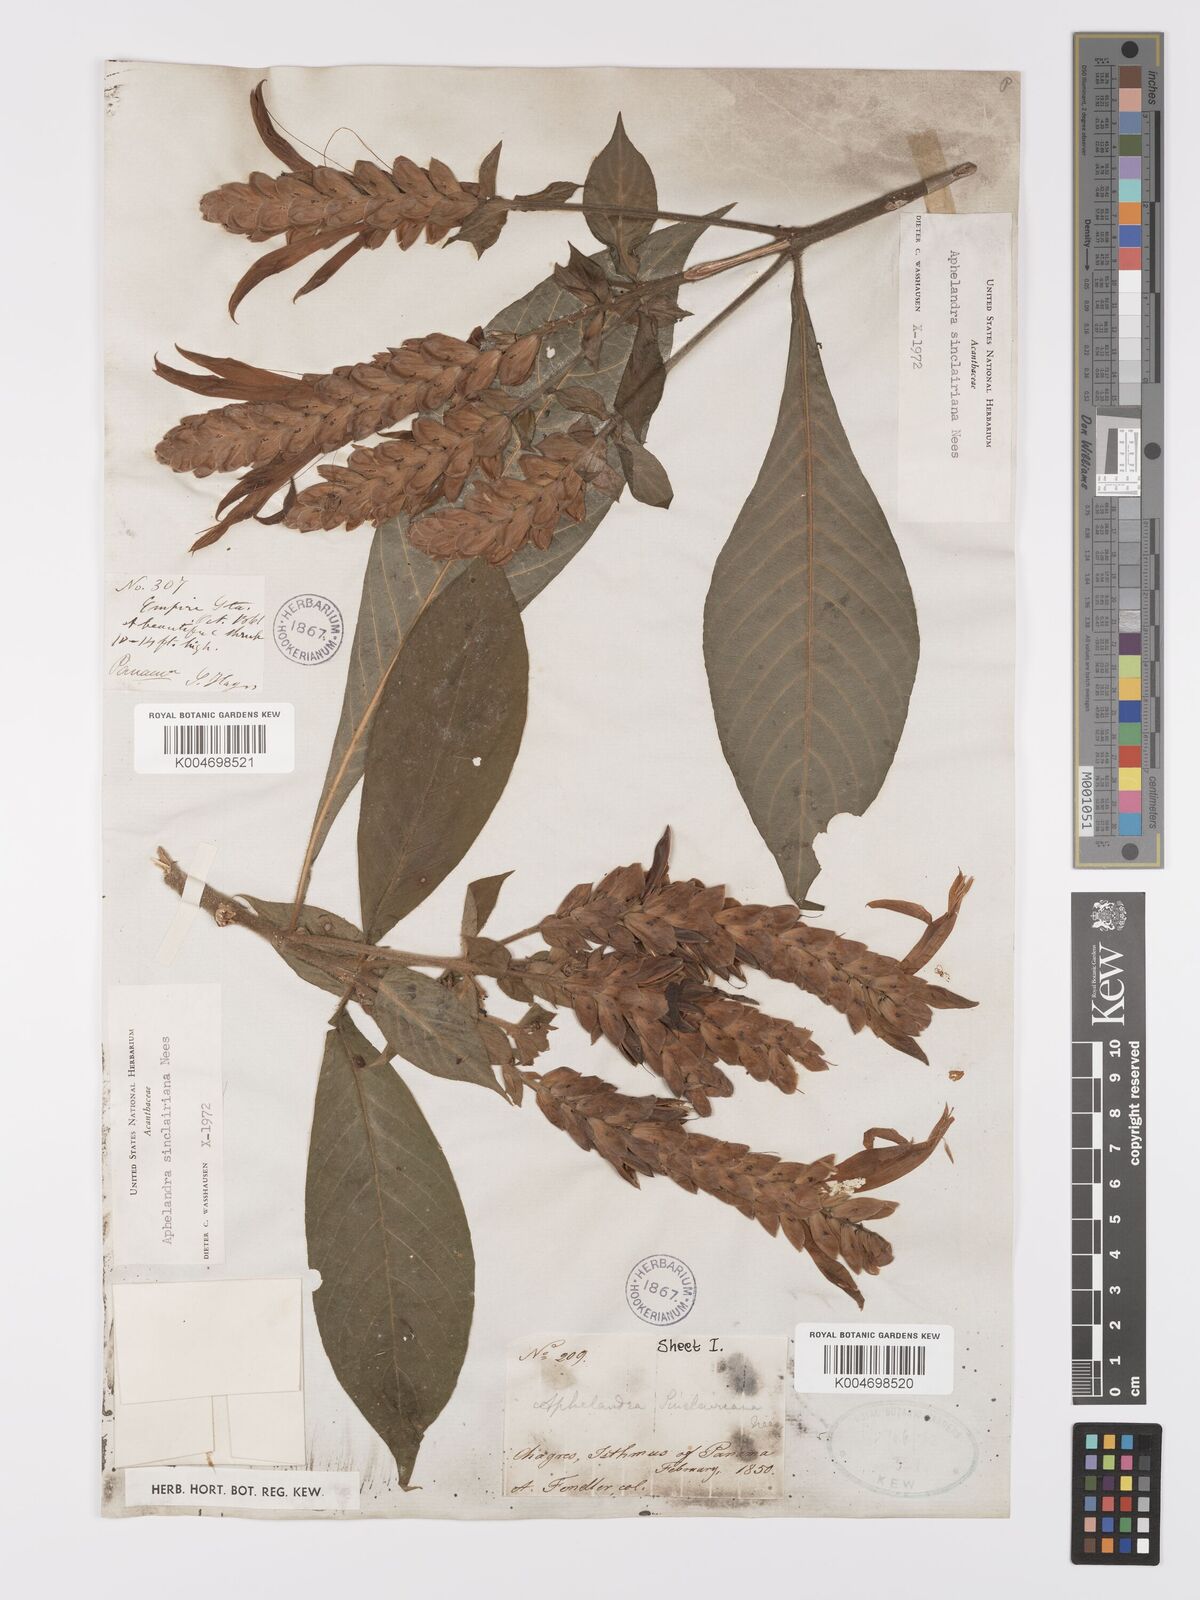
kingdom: Plantae
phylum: Tracheophyta
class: Magnoliopsida
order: Lamiales
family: Acanthaceae
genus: Aphelandra
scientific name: Aphelandra sinclairiana
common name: Coral aphelandra
